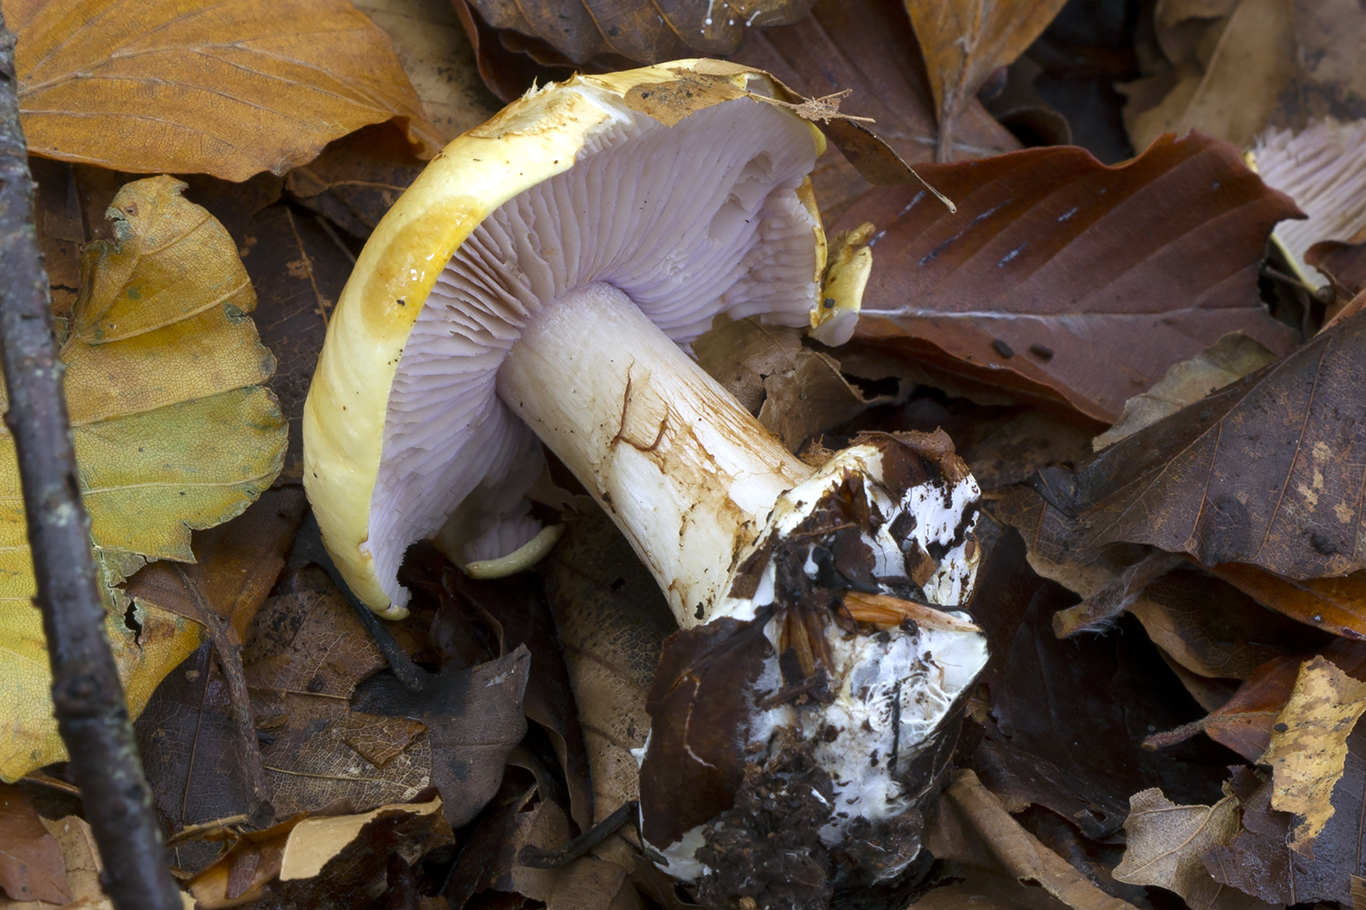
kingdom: Fungi
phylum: Basidiomycota
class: Agaricomycetes
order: Agaricales
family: Cortinariaceae
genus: Calonarius
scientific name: Calonarius platypus
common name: platfodet slørhat
